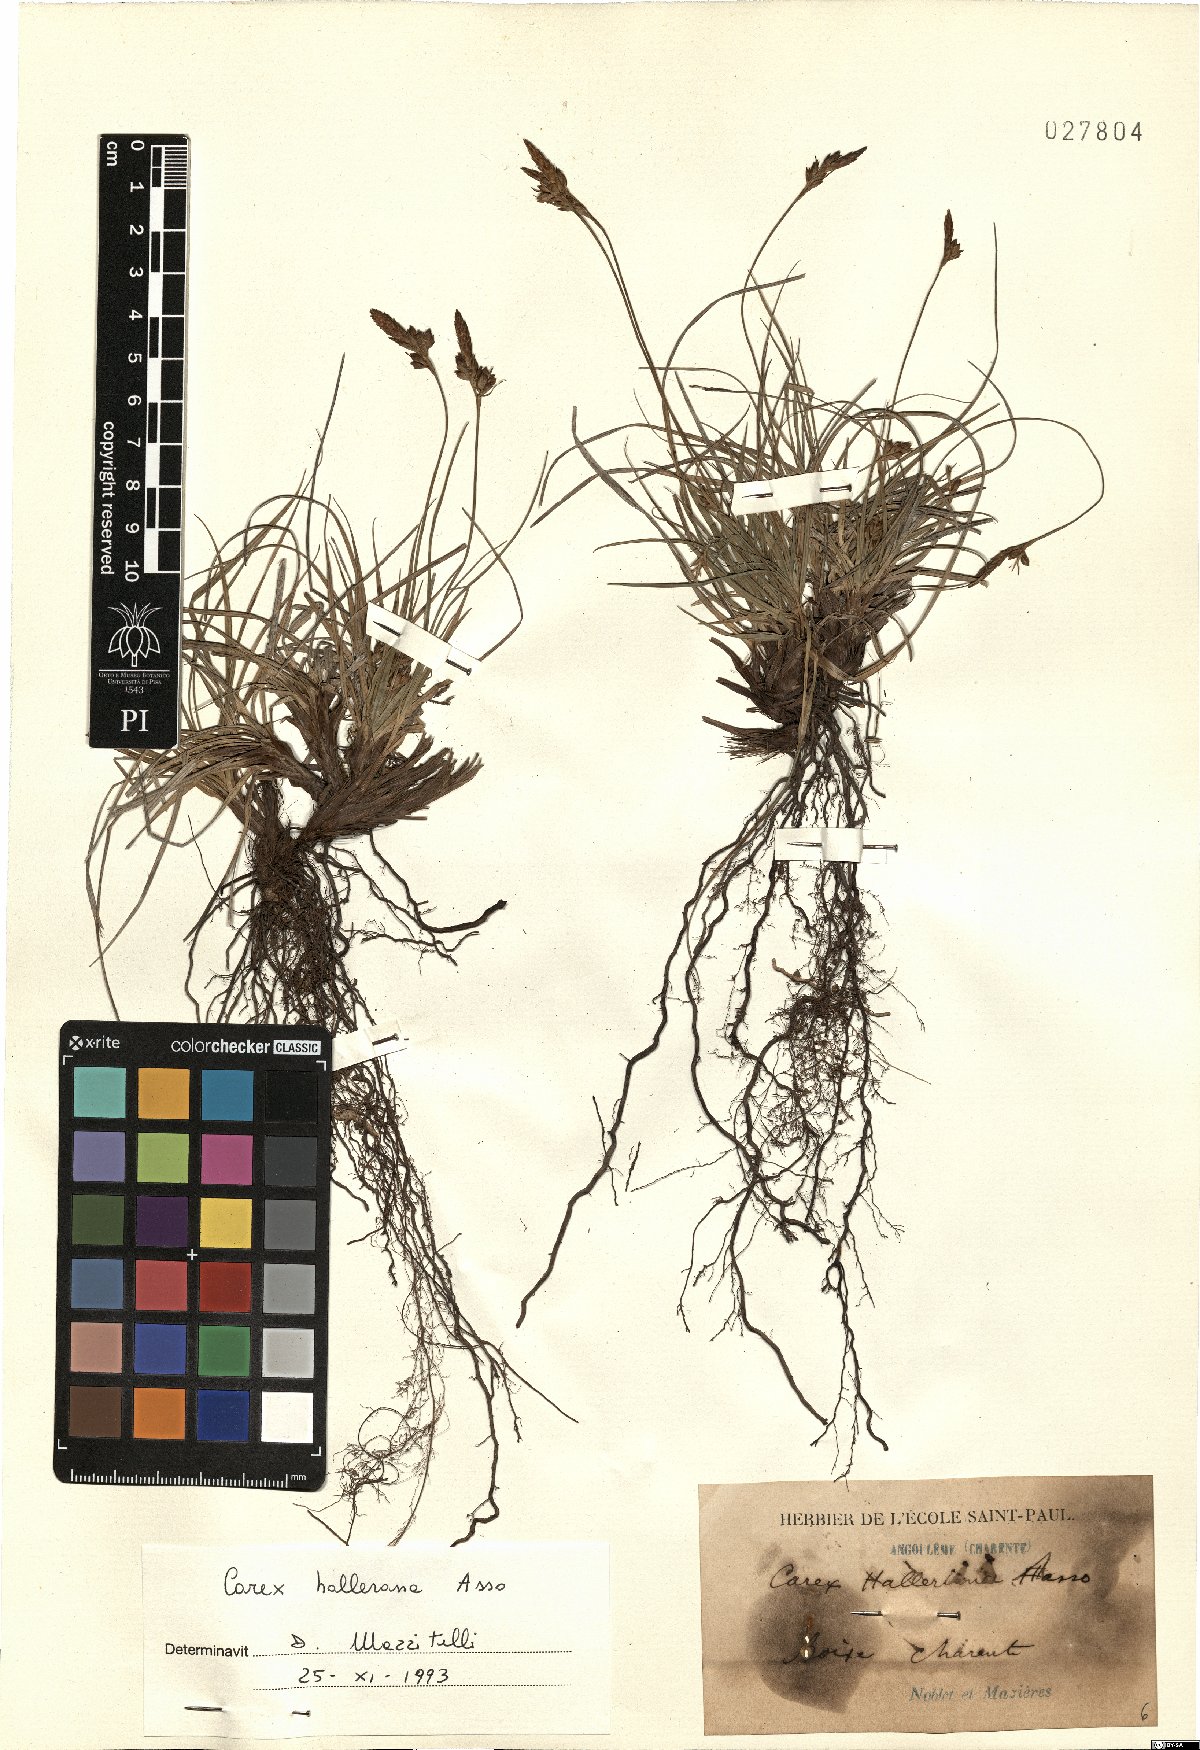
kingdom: Plantae
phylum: Tracheophyta
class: Liliopsida
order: Poales
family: Cyperaceae
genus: Carex
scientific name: Carex halleriana
